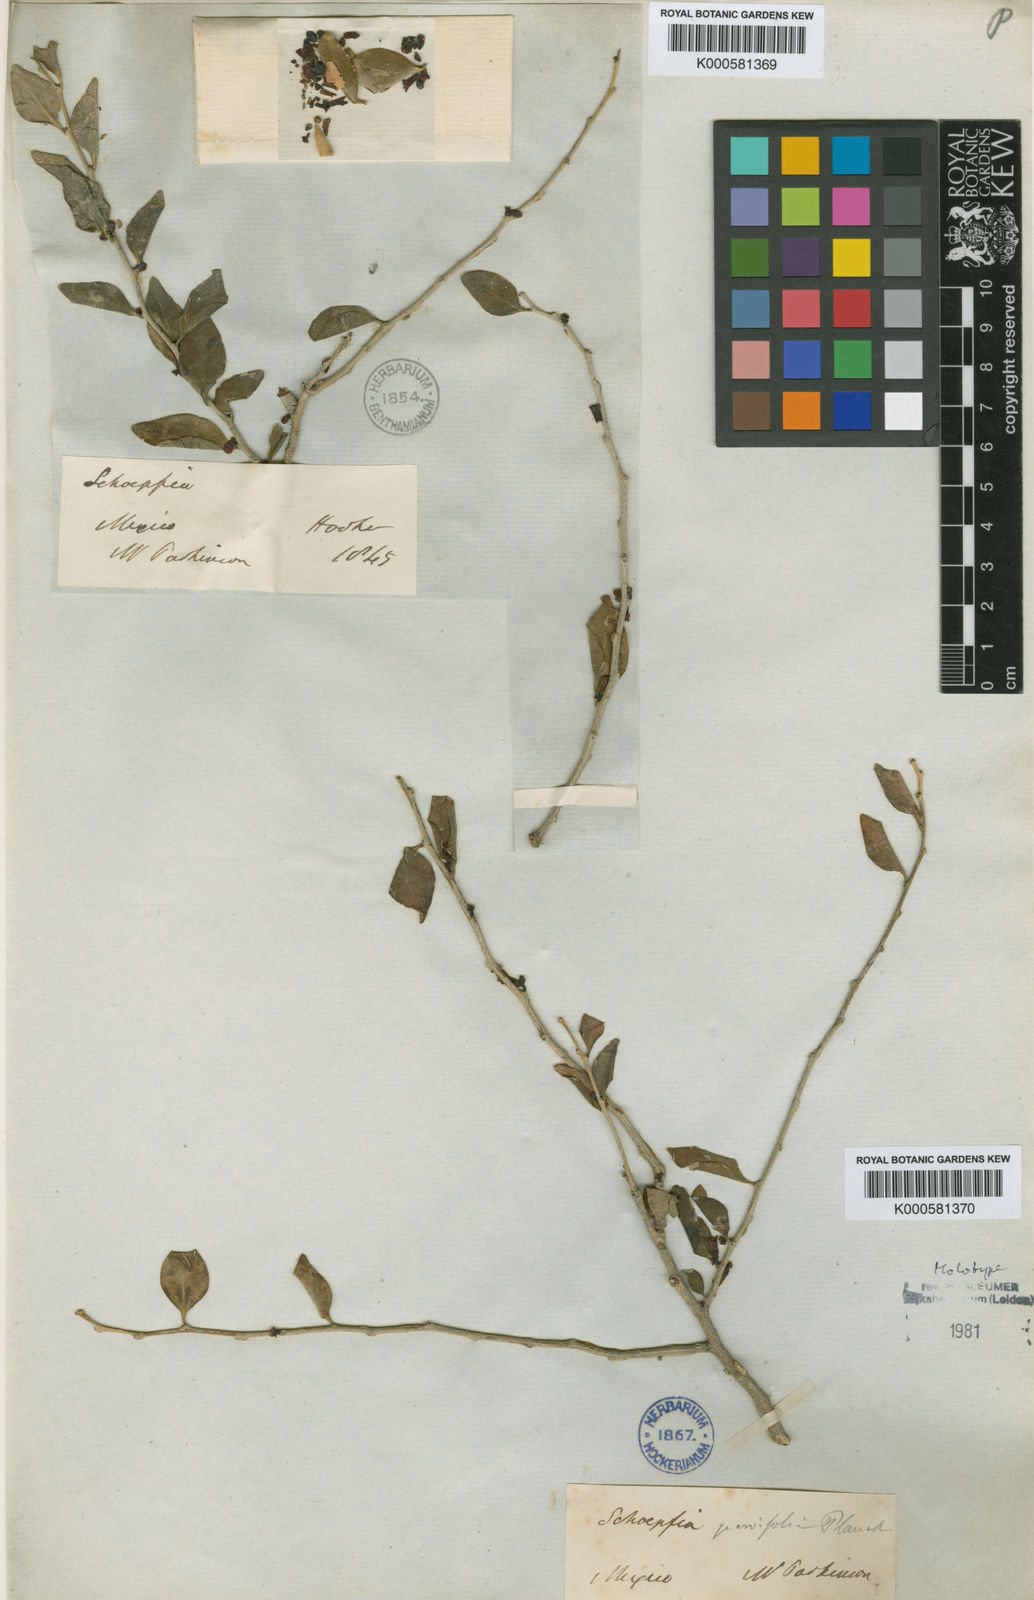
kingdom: Plantae
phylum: Tracheophyta
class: Magnoliopsida
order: Santalales
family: Schoepfiaceae
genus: Schoepfia
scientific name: Schoepfia schreberi
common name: Gulf graytwig
